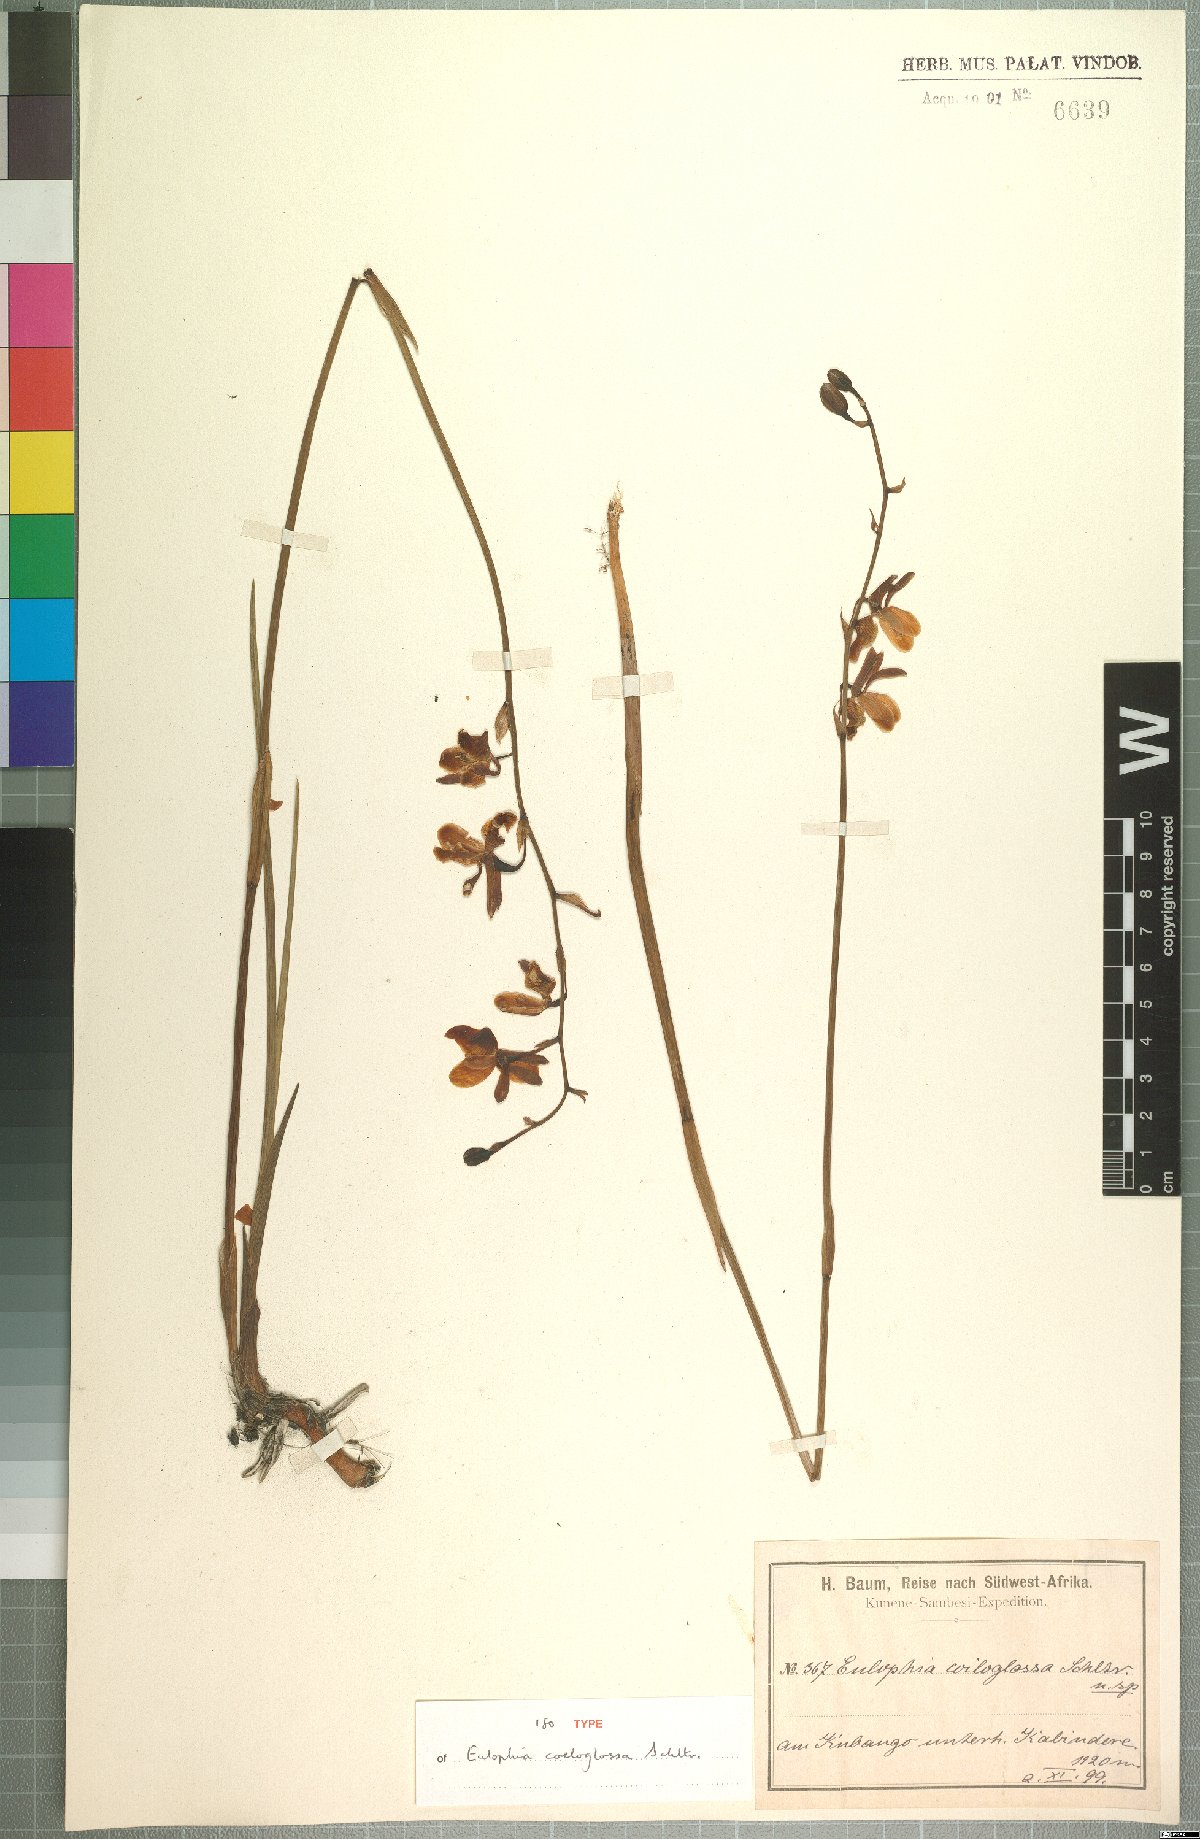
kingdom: Plantae
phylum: Tracheophyta
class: Liliopsida
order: Asparagales
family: Orchidaceae
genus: Eulophia
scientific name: Eulophia coeloglossa
